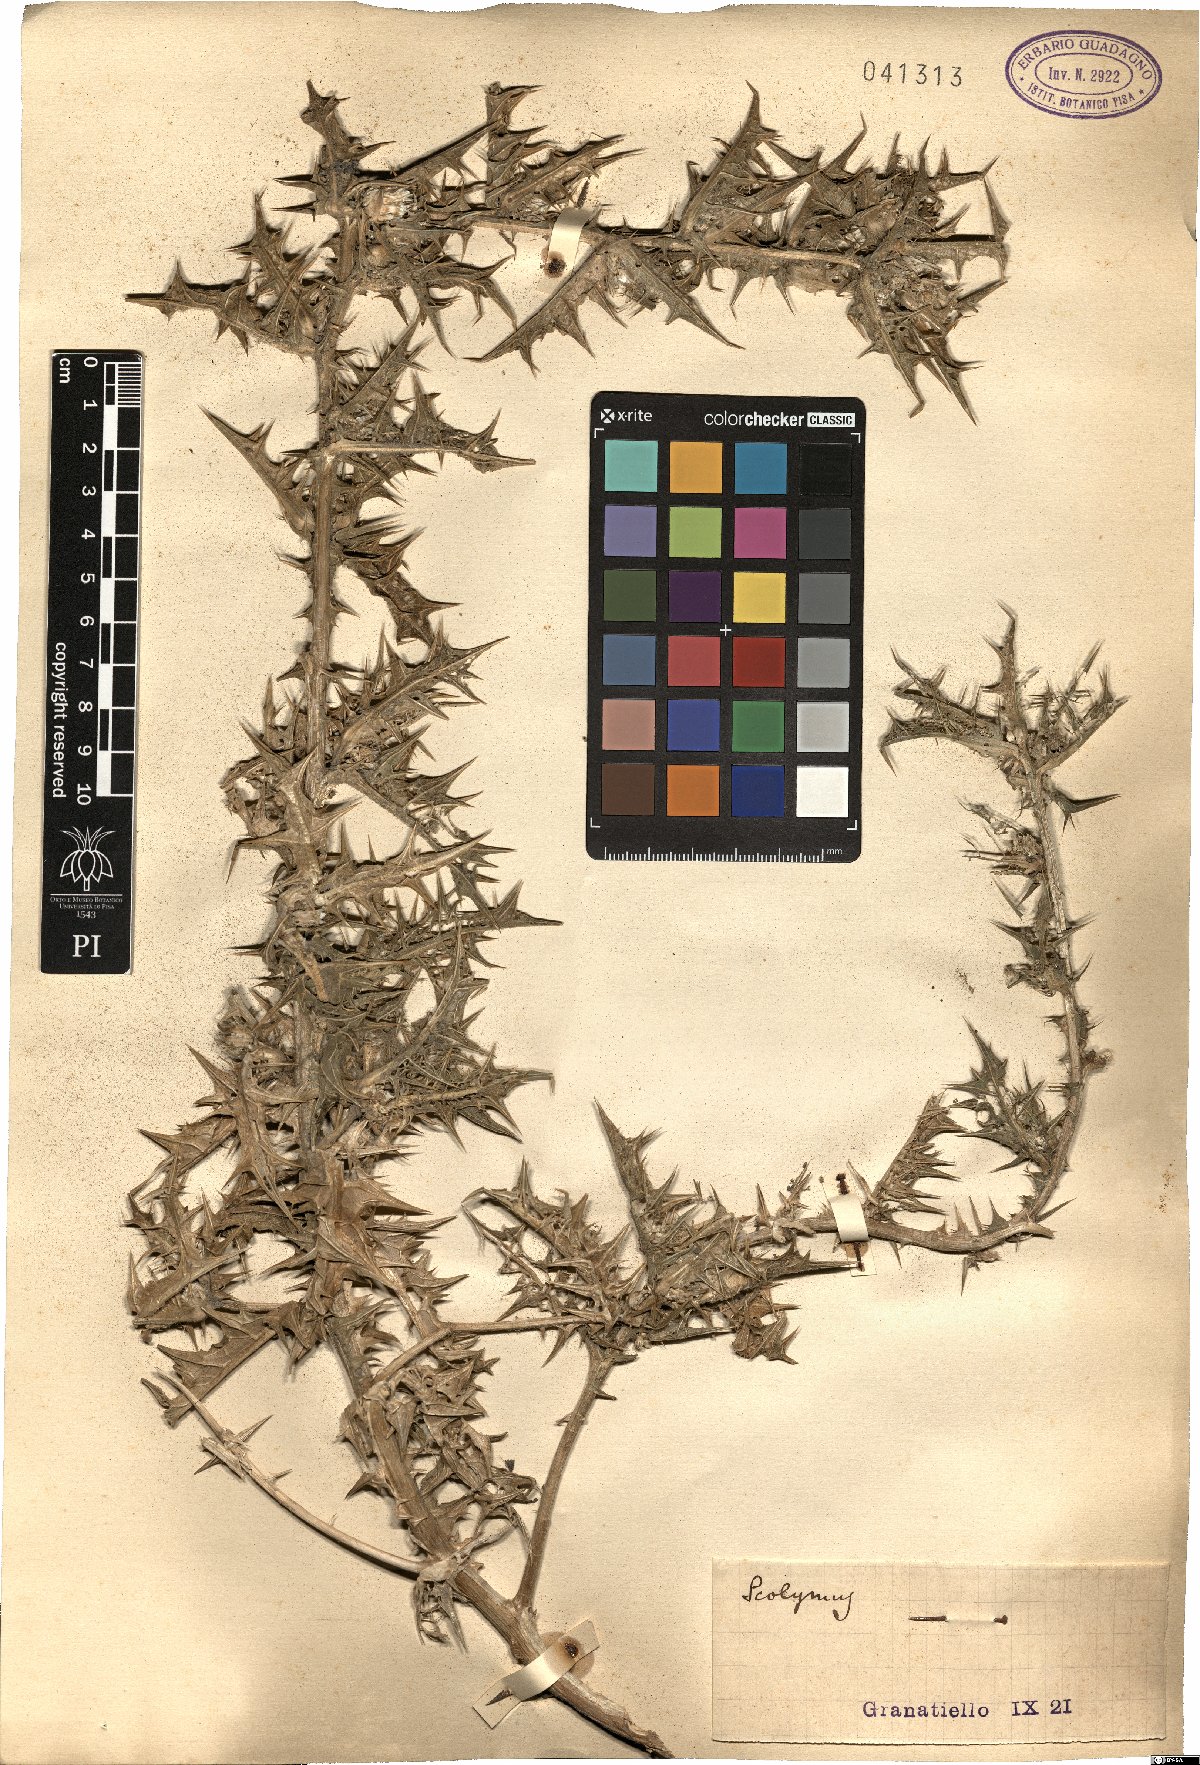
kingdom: Plantae
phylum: Tracheophyta
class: Magnoliopsida
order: Asterales
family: Asteraceae
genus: Scolymus
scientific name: Scolymus
